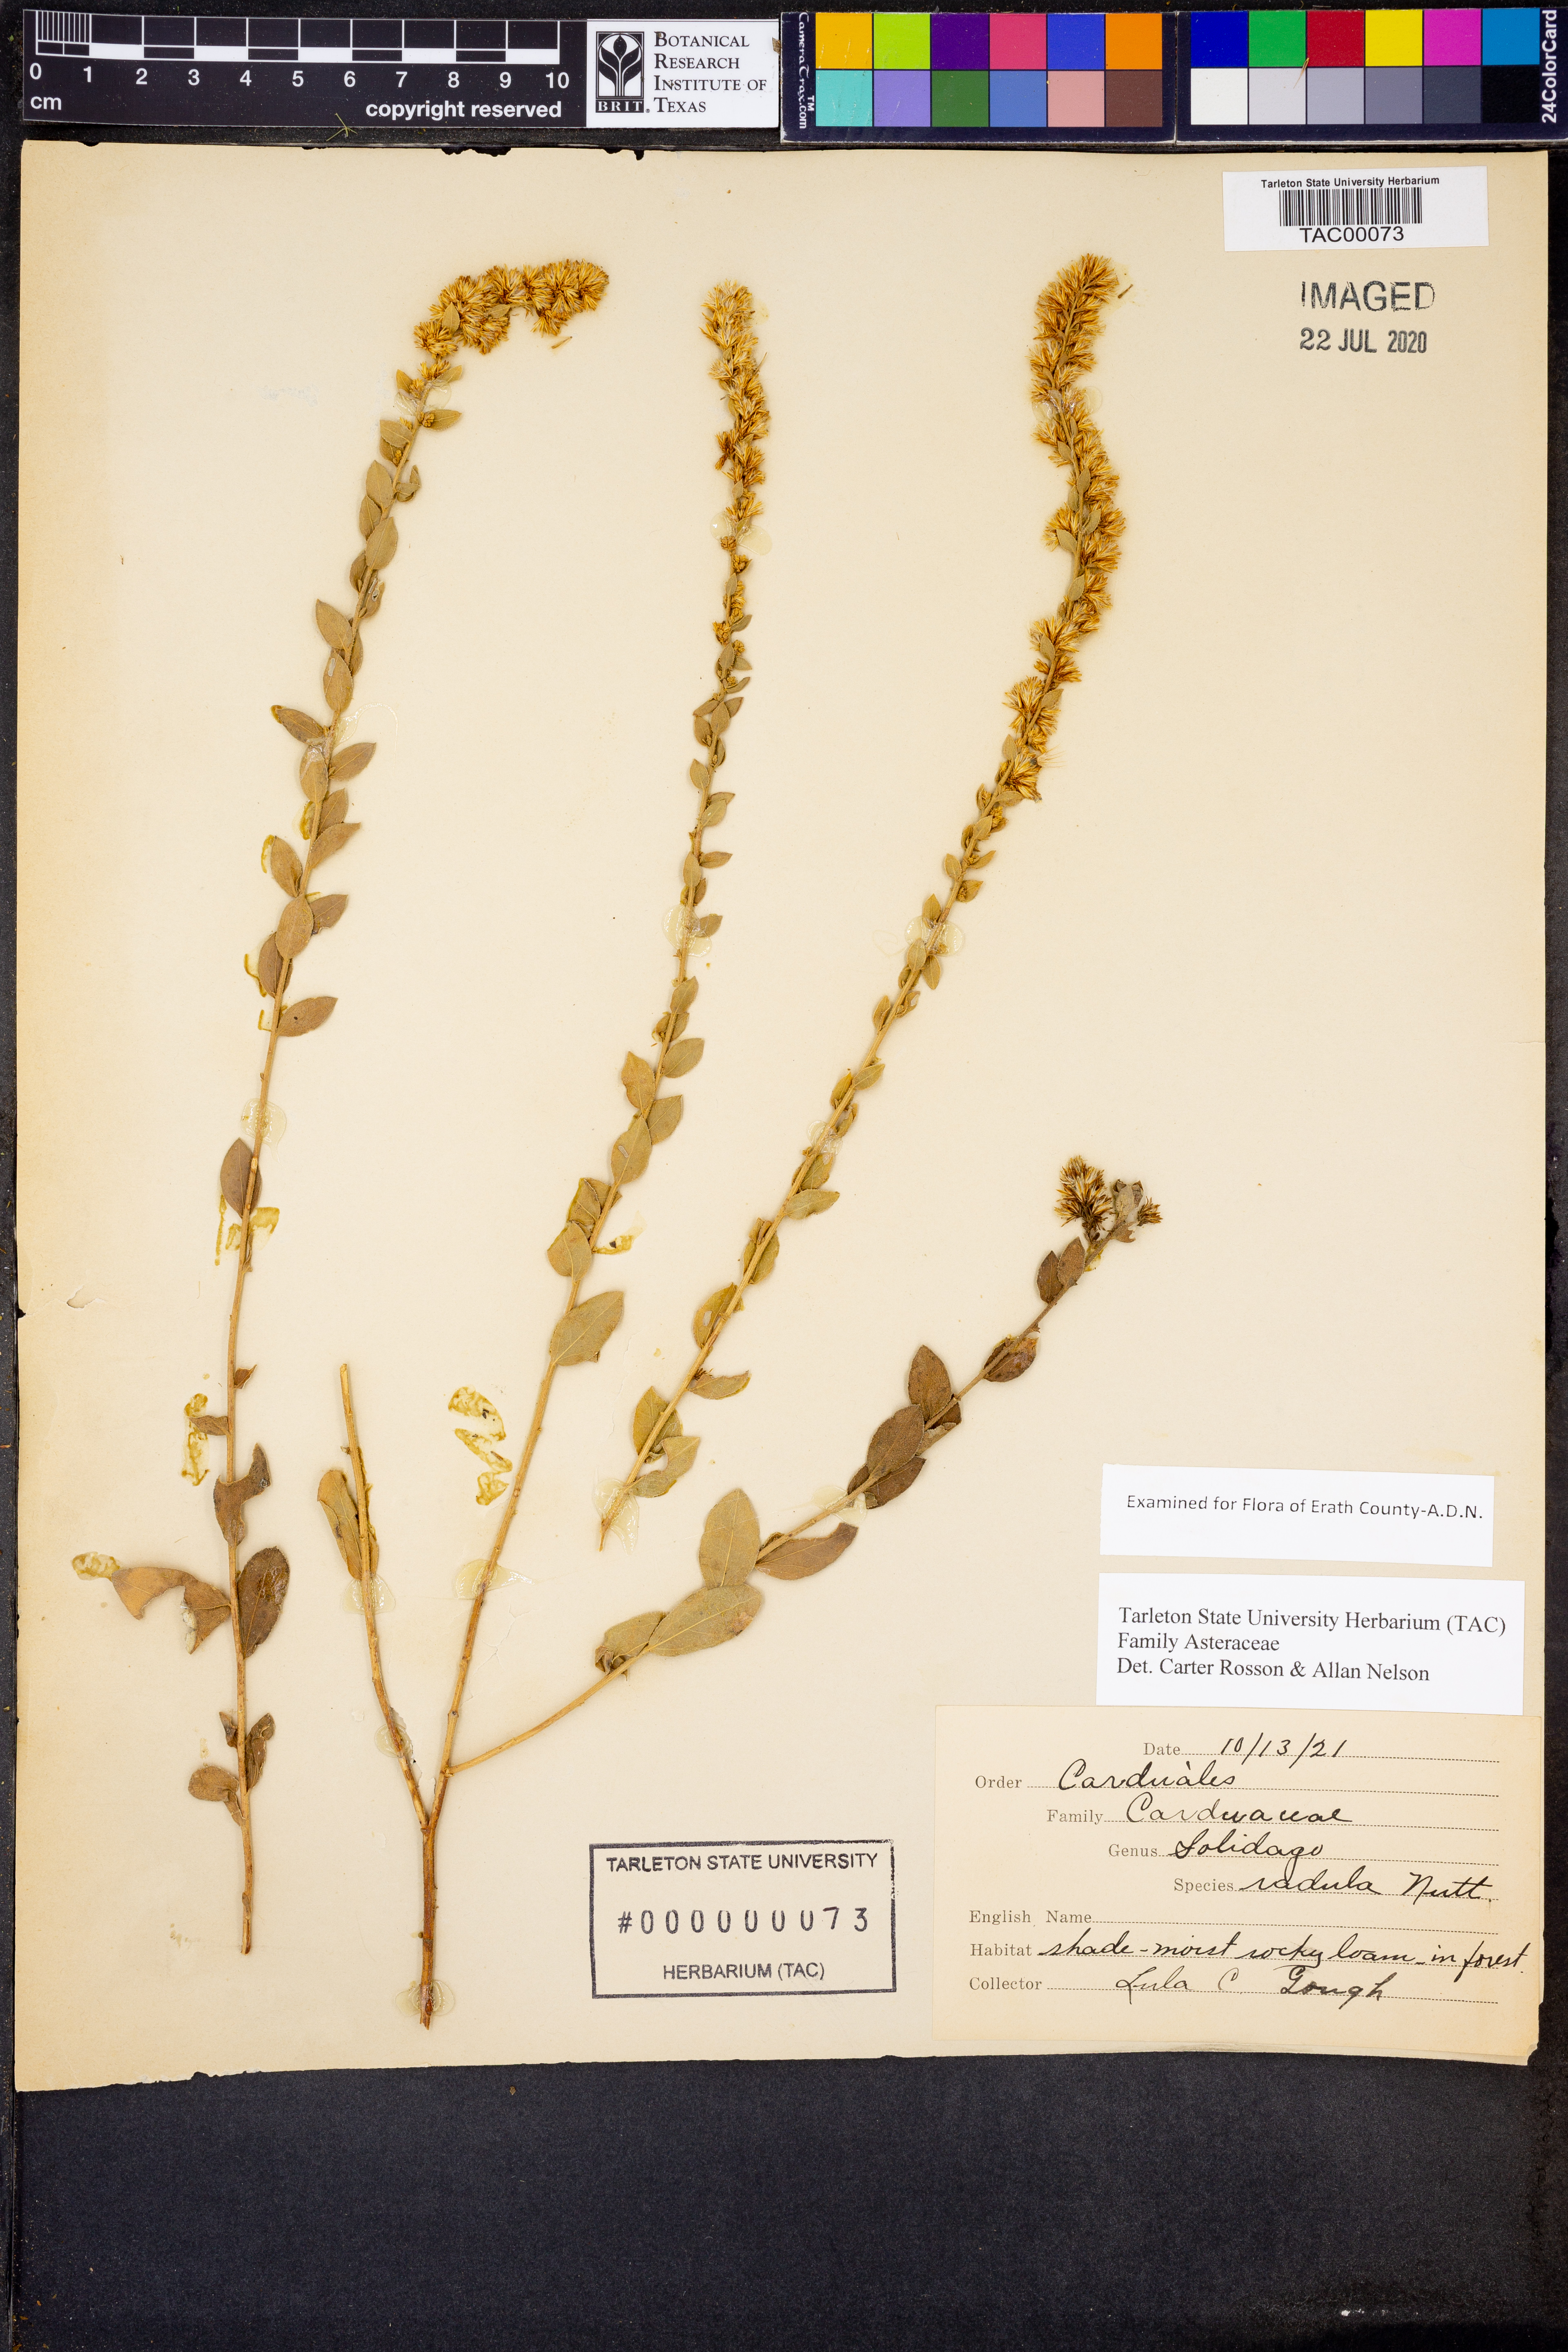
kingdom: Plantae
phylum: Tracheophyta
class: Magnoliopsida
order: Asterales
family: Asteraceae
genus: Solidago
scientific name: Solidago radula
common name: Western rough goldenrod
